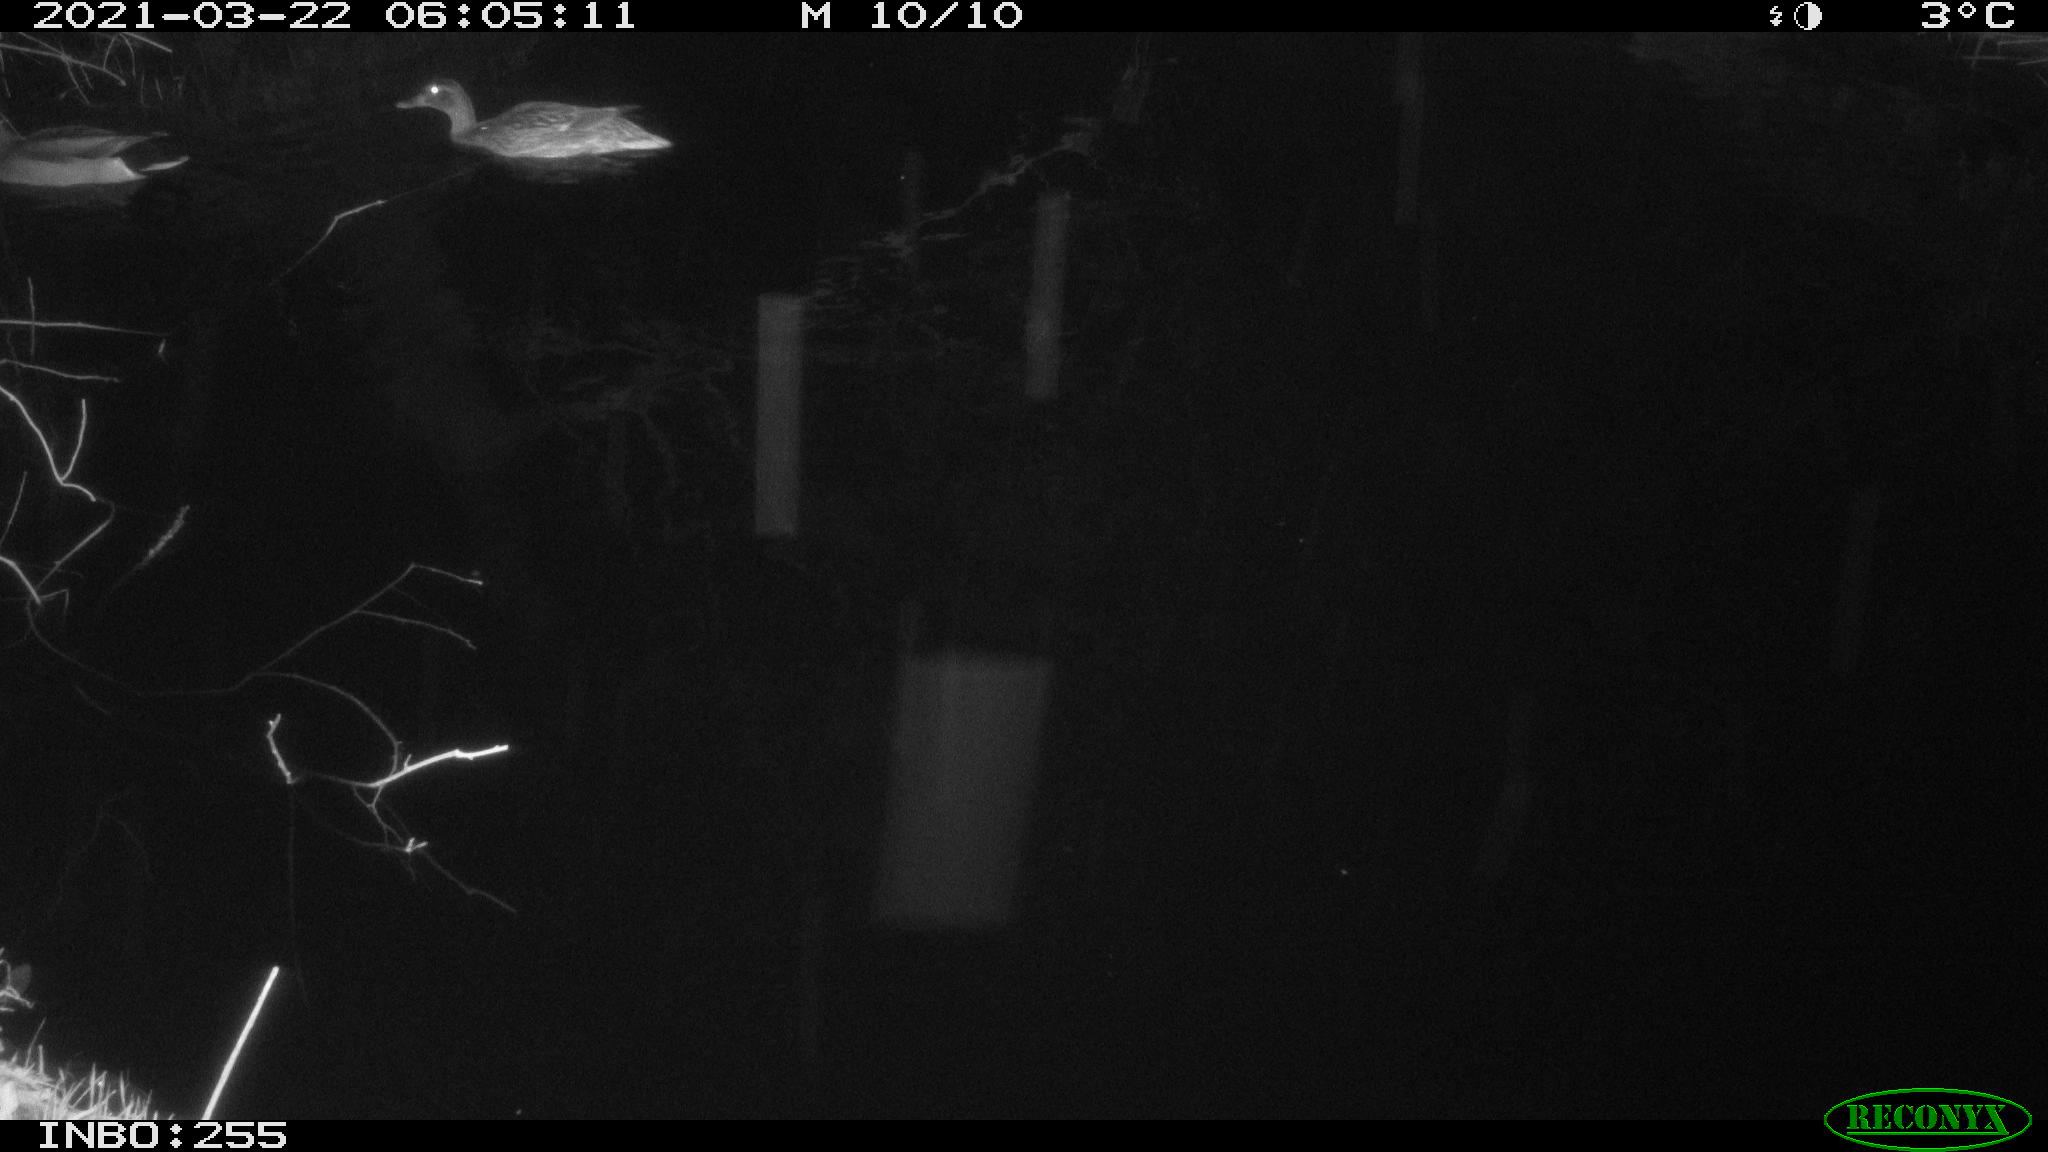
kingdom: Animalia
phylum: Chordata
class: Aves
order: Anseriformes
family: Anatidae
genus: Anas
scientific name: Anas platyrhynchos
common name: Mallard
